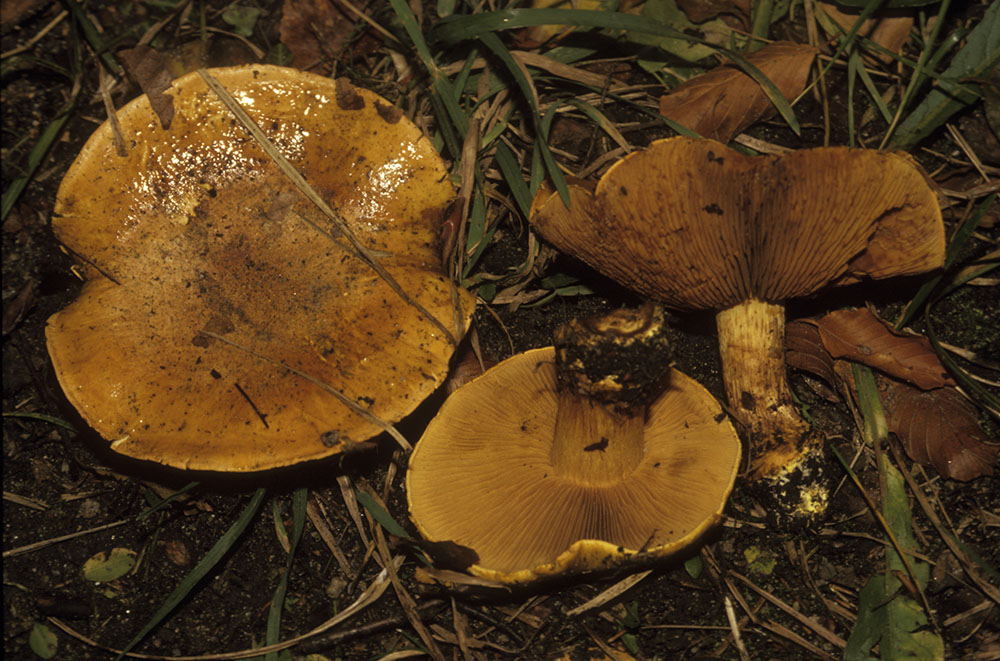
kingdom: Fungi
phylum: Basidiomycota
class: Agaricomycetes
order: Agaricales
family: Cortinariaceae
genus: Calonarius
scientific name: Calonarius olearioides
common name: safran-slørhat
